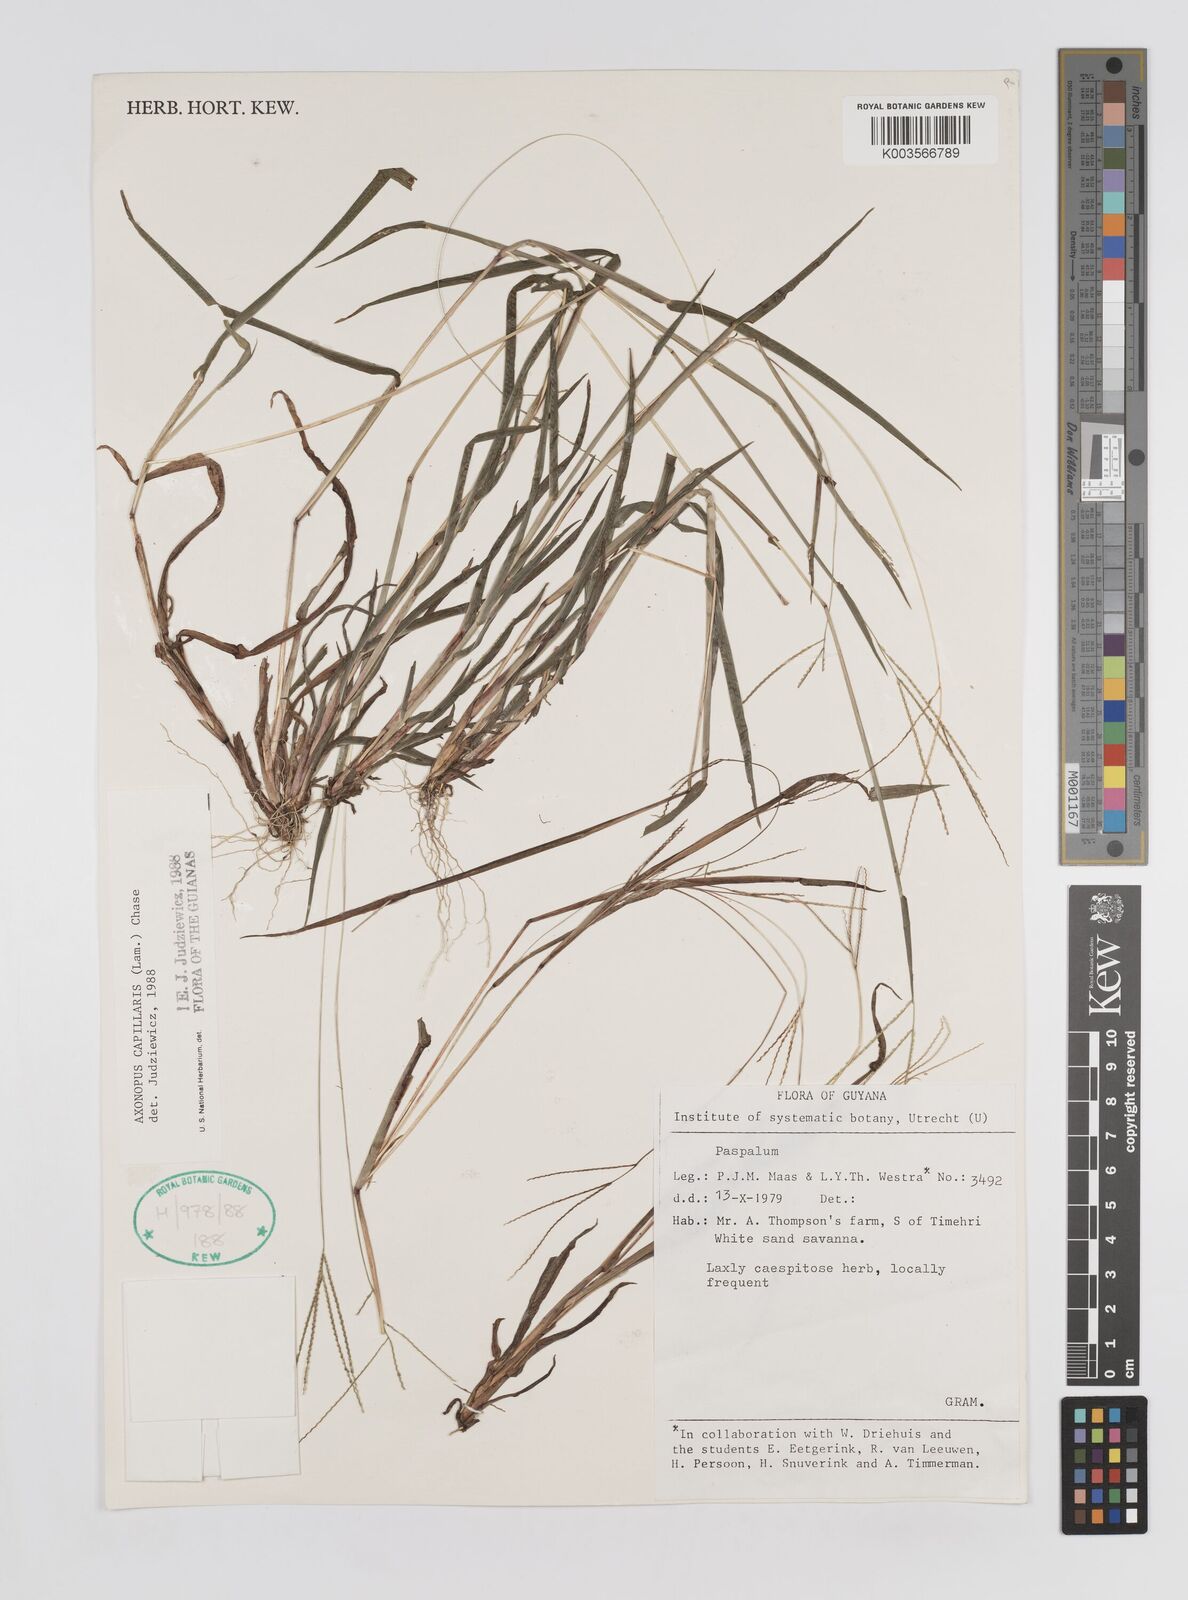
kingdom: Plantae
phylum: Tracheophyta
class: Liliopsida
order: Poales
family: Poaceae
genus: Axonopus
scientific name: Axonopus capillaris
